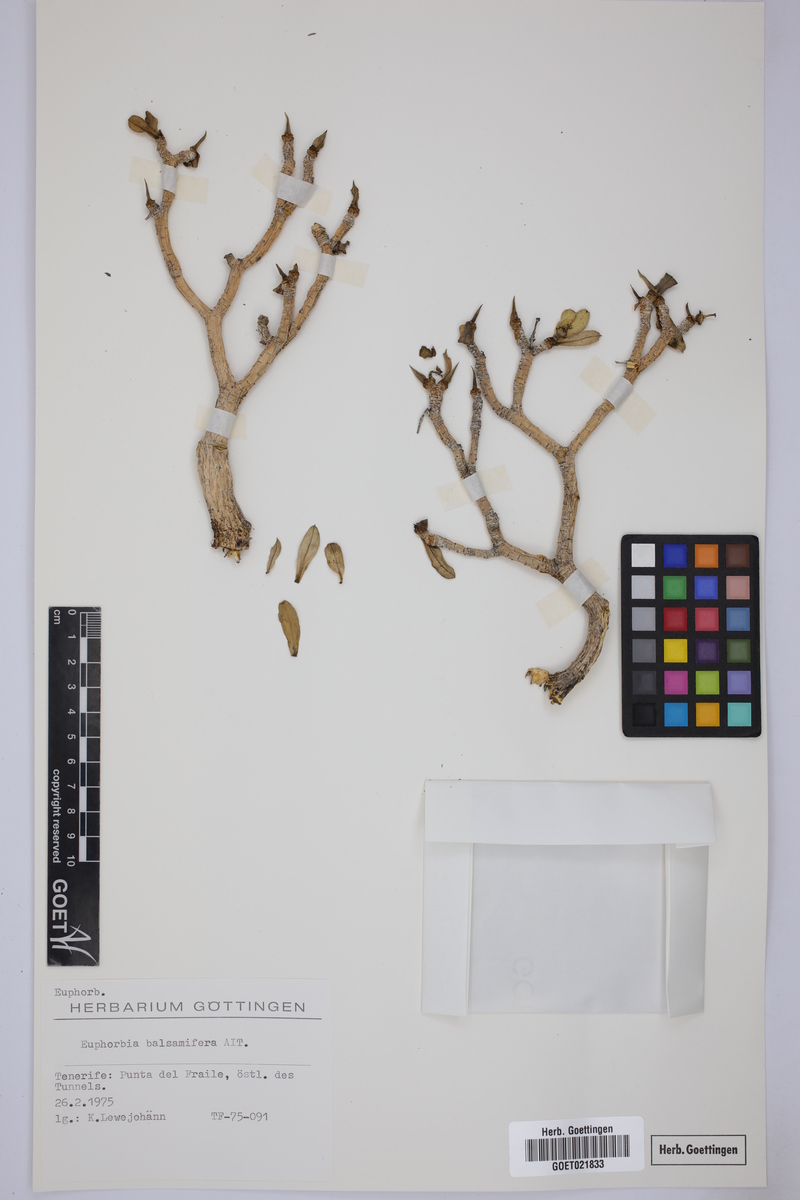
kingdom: Plantae
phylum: Tracheophyta
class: Magnoliopsida
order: Malpighiales
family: Euphorbiaceae
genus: Euphorbia
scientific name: Euphorbia balsamifera
